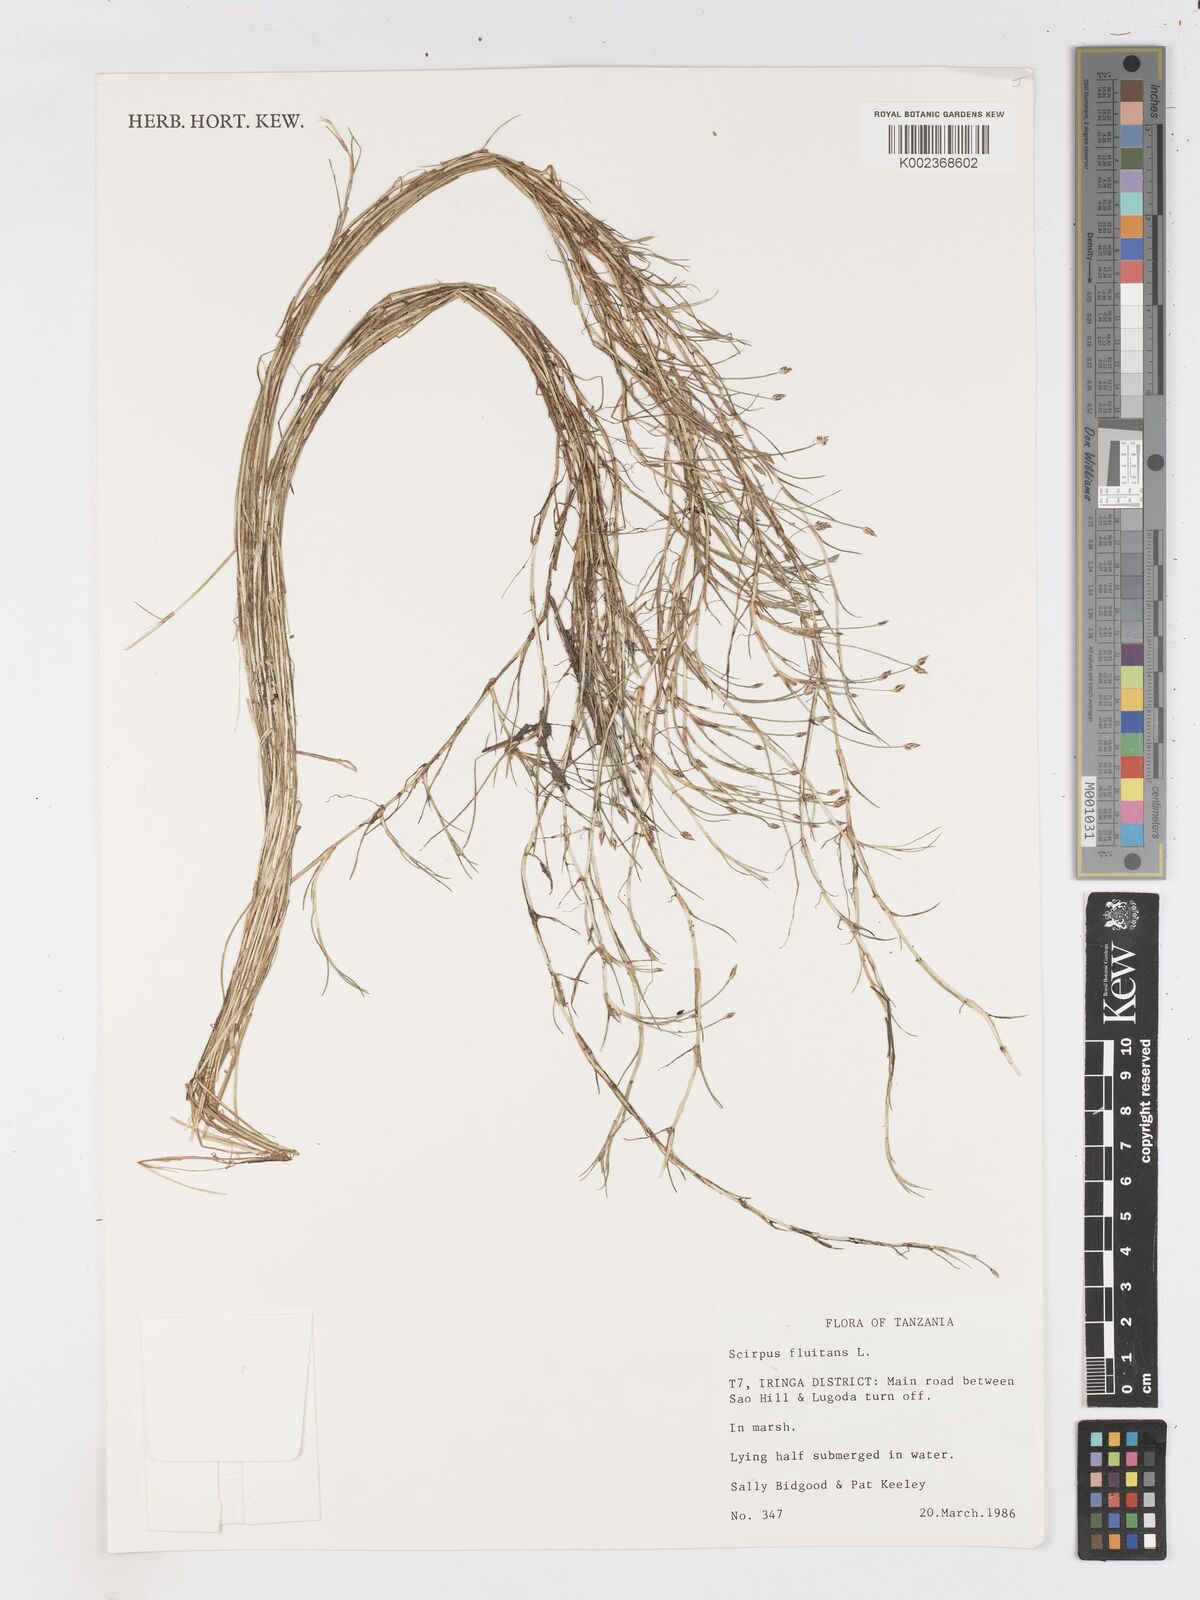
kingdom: Plantae
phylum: Tracheophyta
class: Liliopsida
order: Poales
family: Cyperaceae
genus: Isolepis
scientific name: Isolepis fluitans
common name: Floating club-rush
